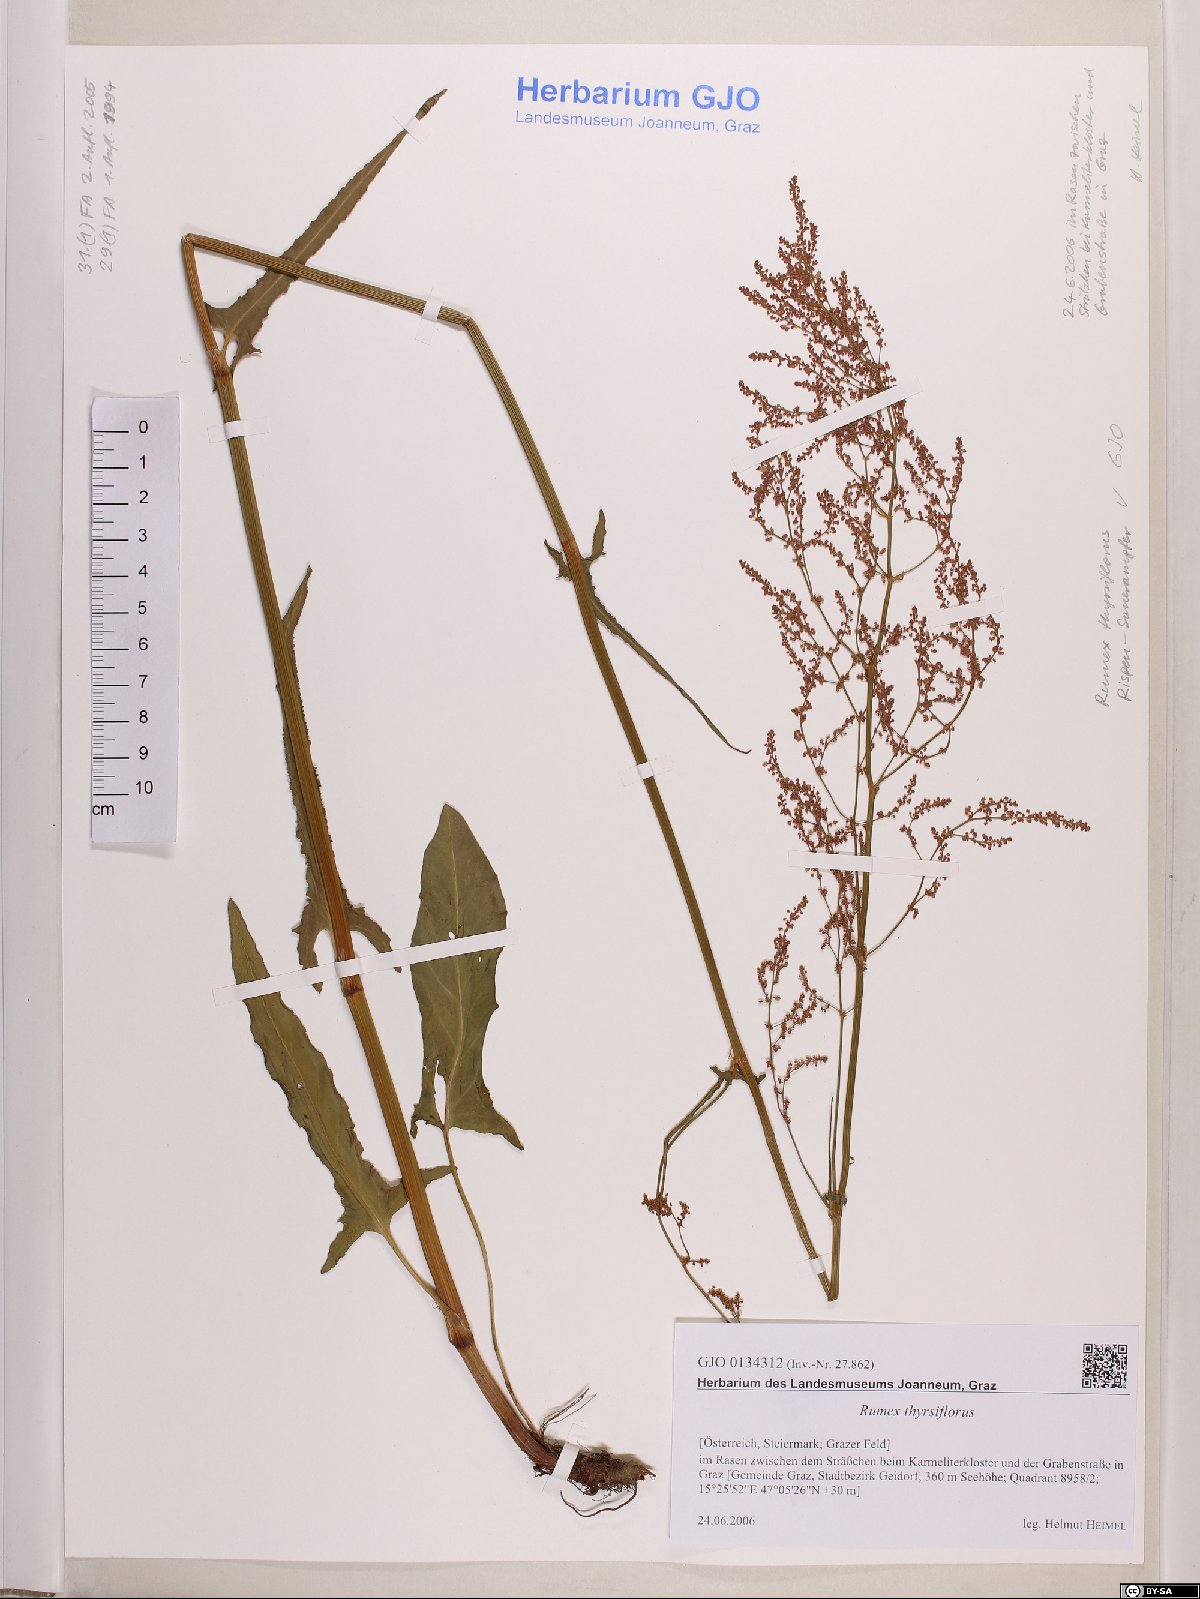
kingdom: Plantae
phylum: Tracheophyta
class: Magnoliopsida
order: Caryophyllales
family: Polygonaceae
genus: Rumex
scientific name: Rumex thyrsiflorus
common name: Garden sorrel
